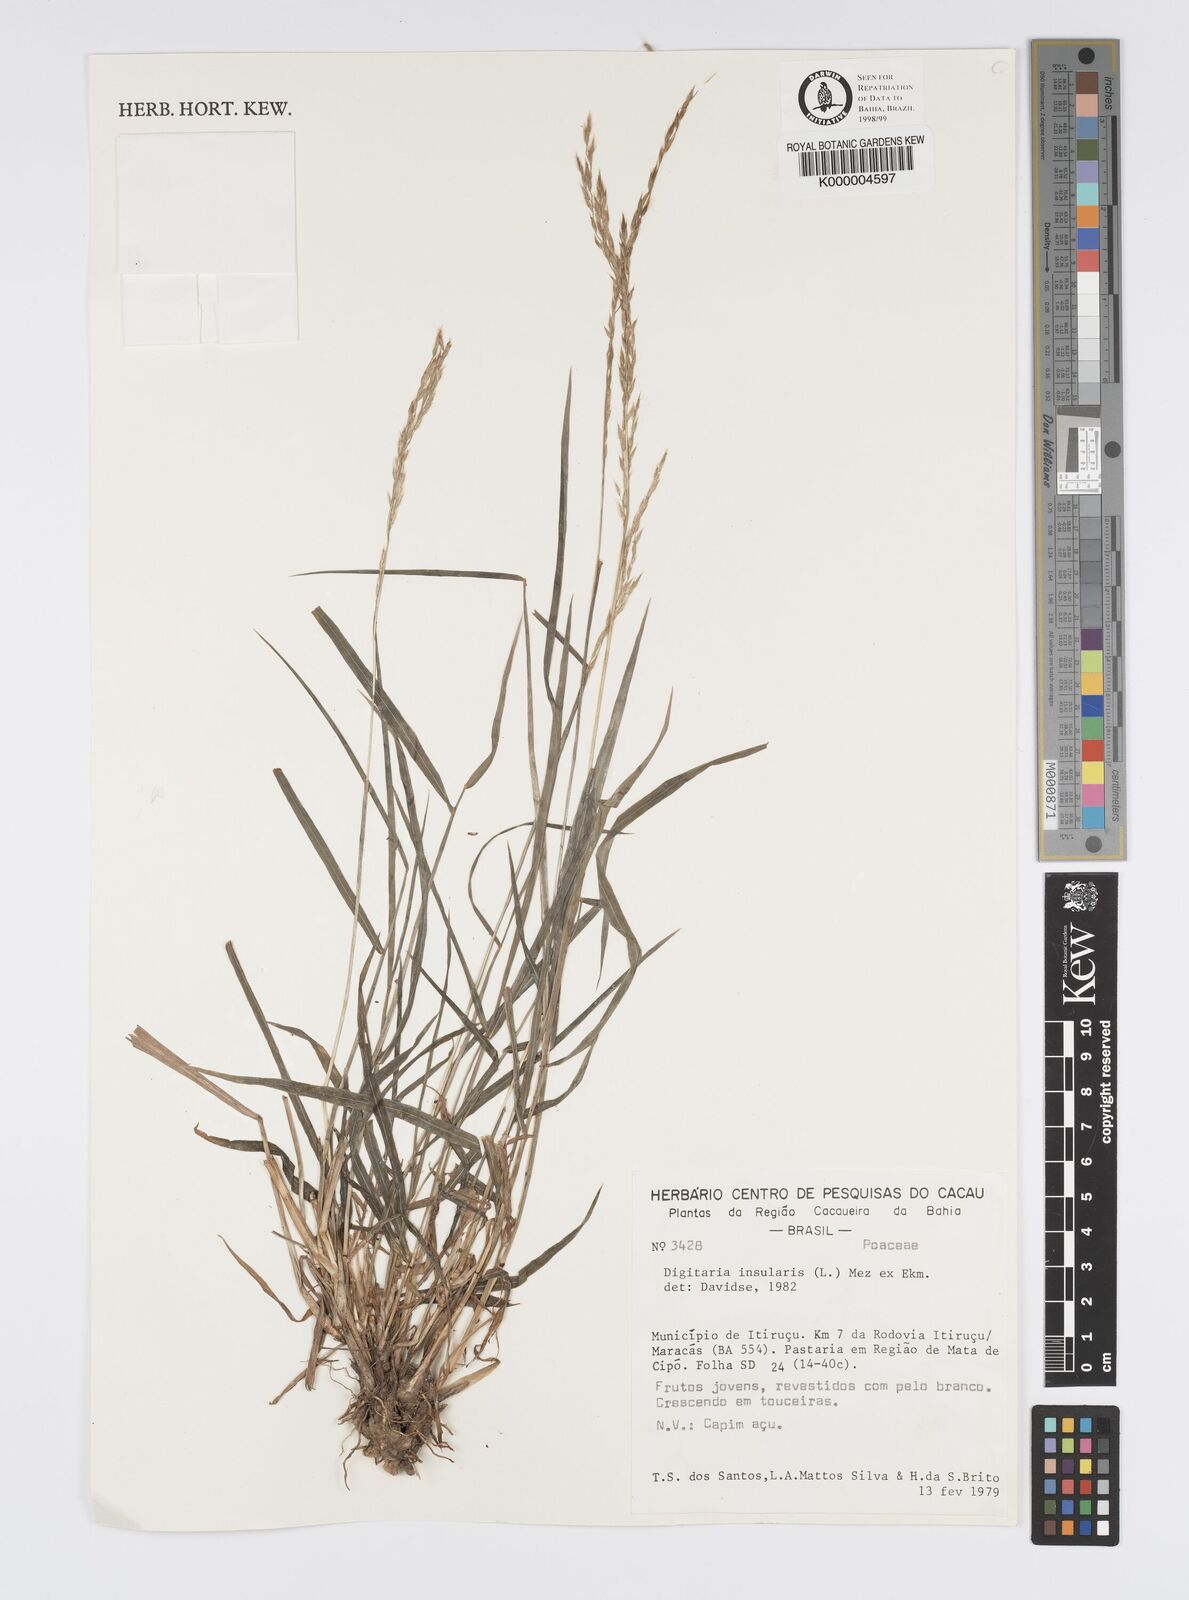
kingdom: Plantae
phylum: Tracheophyta
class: Liliopsida
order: Poales
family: Poaceae
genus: Digitaria
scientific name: Digitaria
